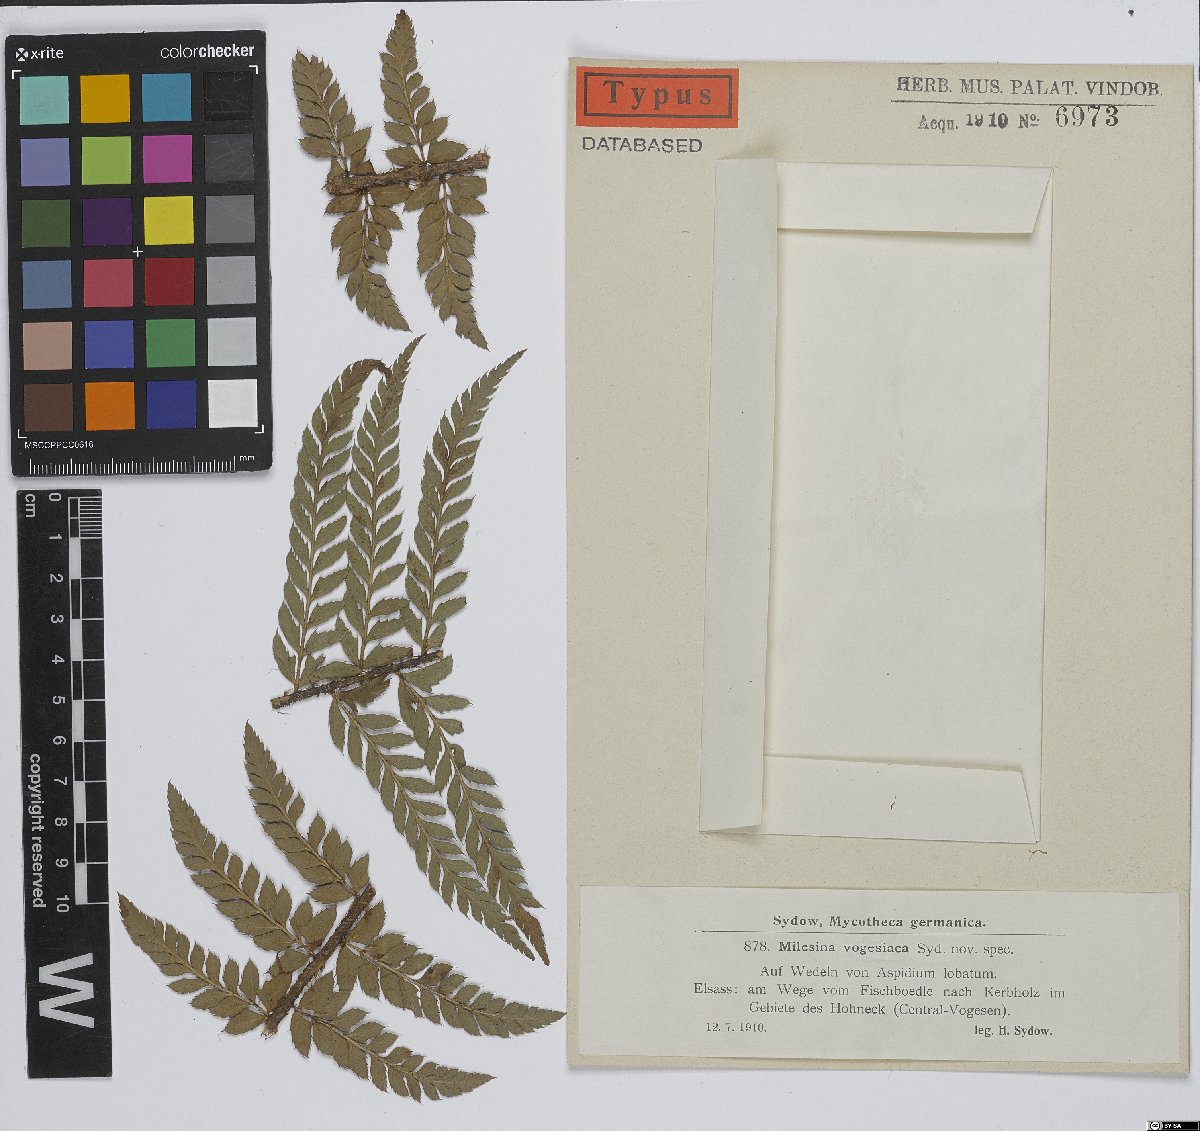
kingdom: Fungi
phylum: Basidiomycota
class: Pucciniomycetes
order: Pucciniales
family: Milesinaceae
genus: Milesina
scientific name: Milesina vogesiaca
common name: Smooth-spored fern rust
